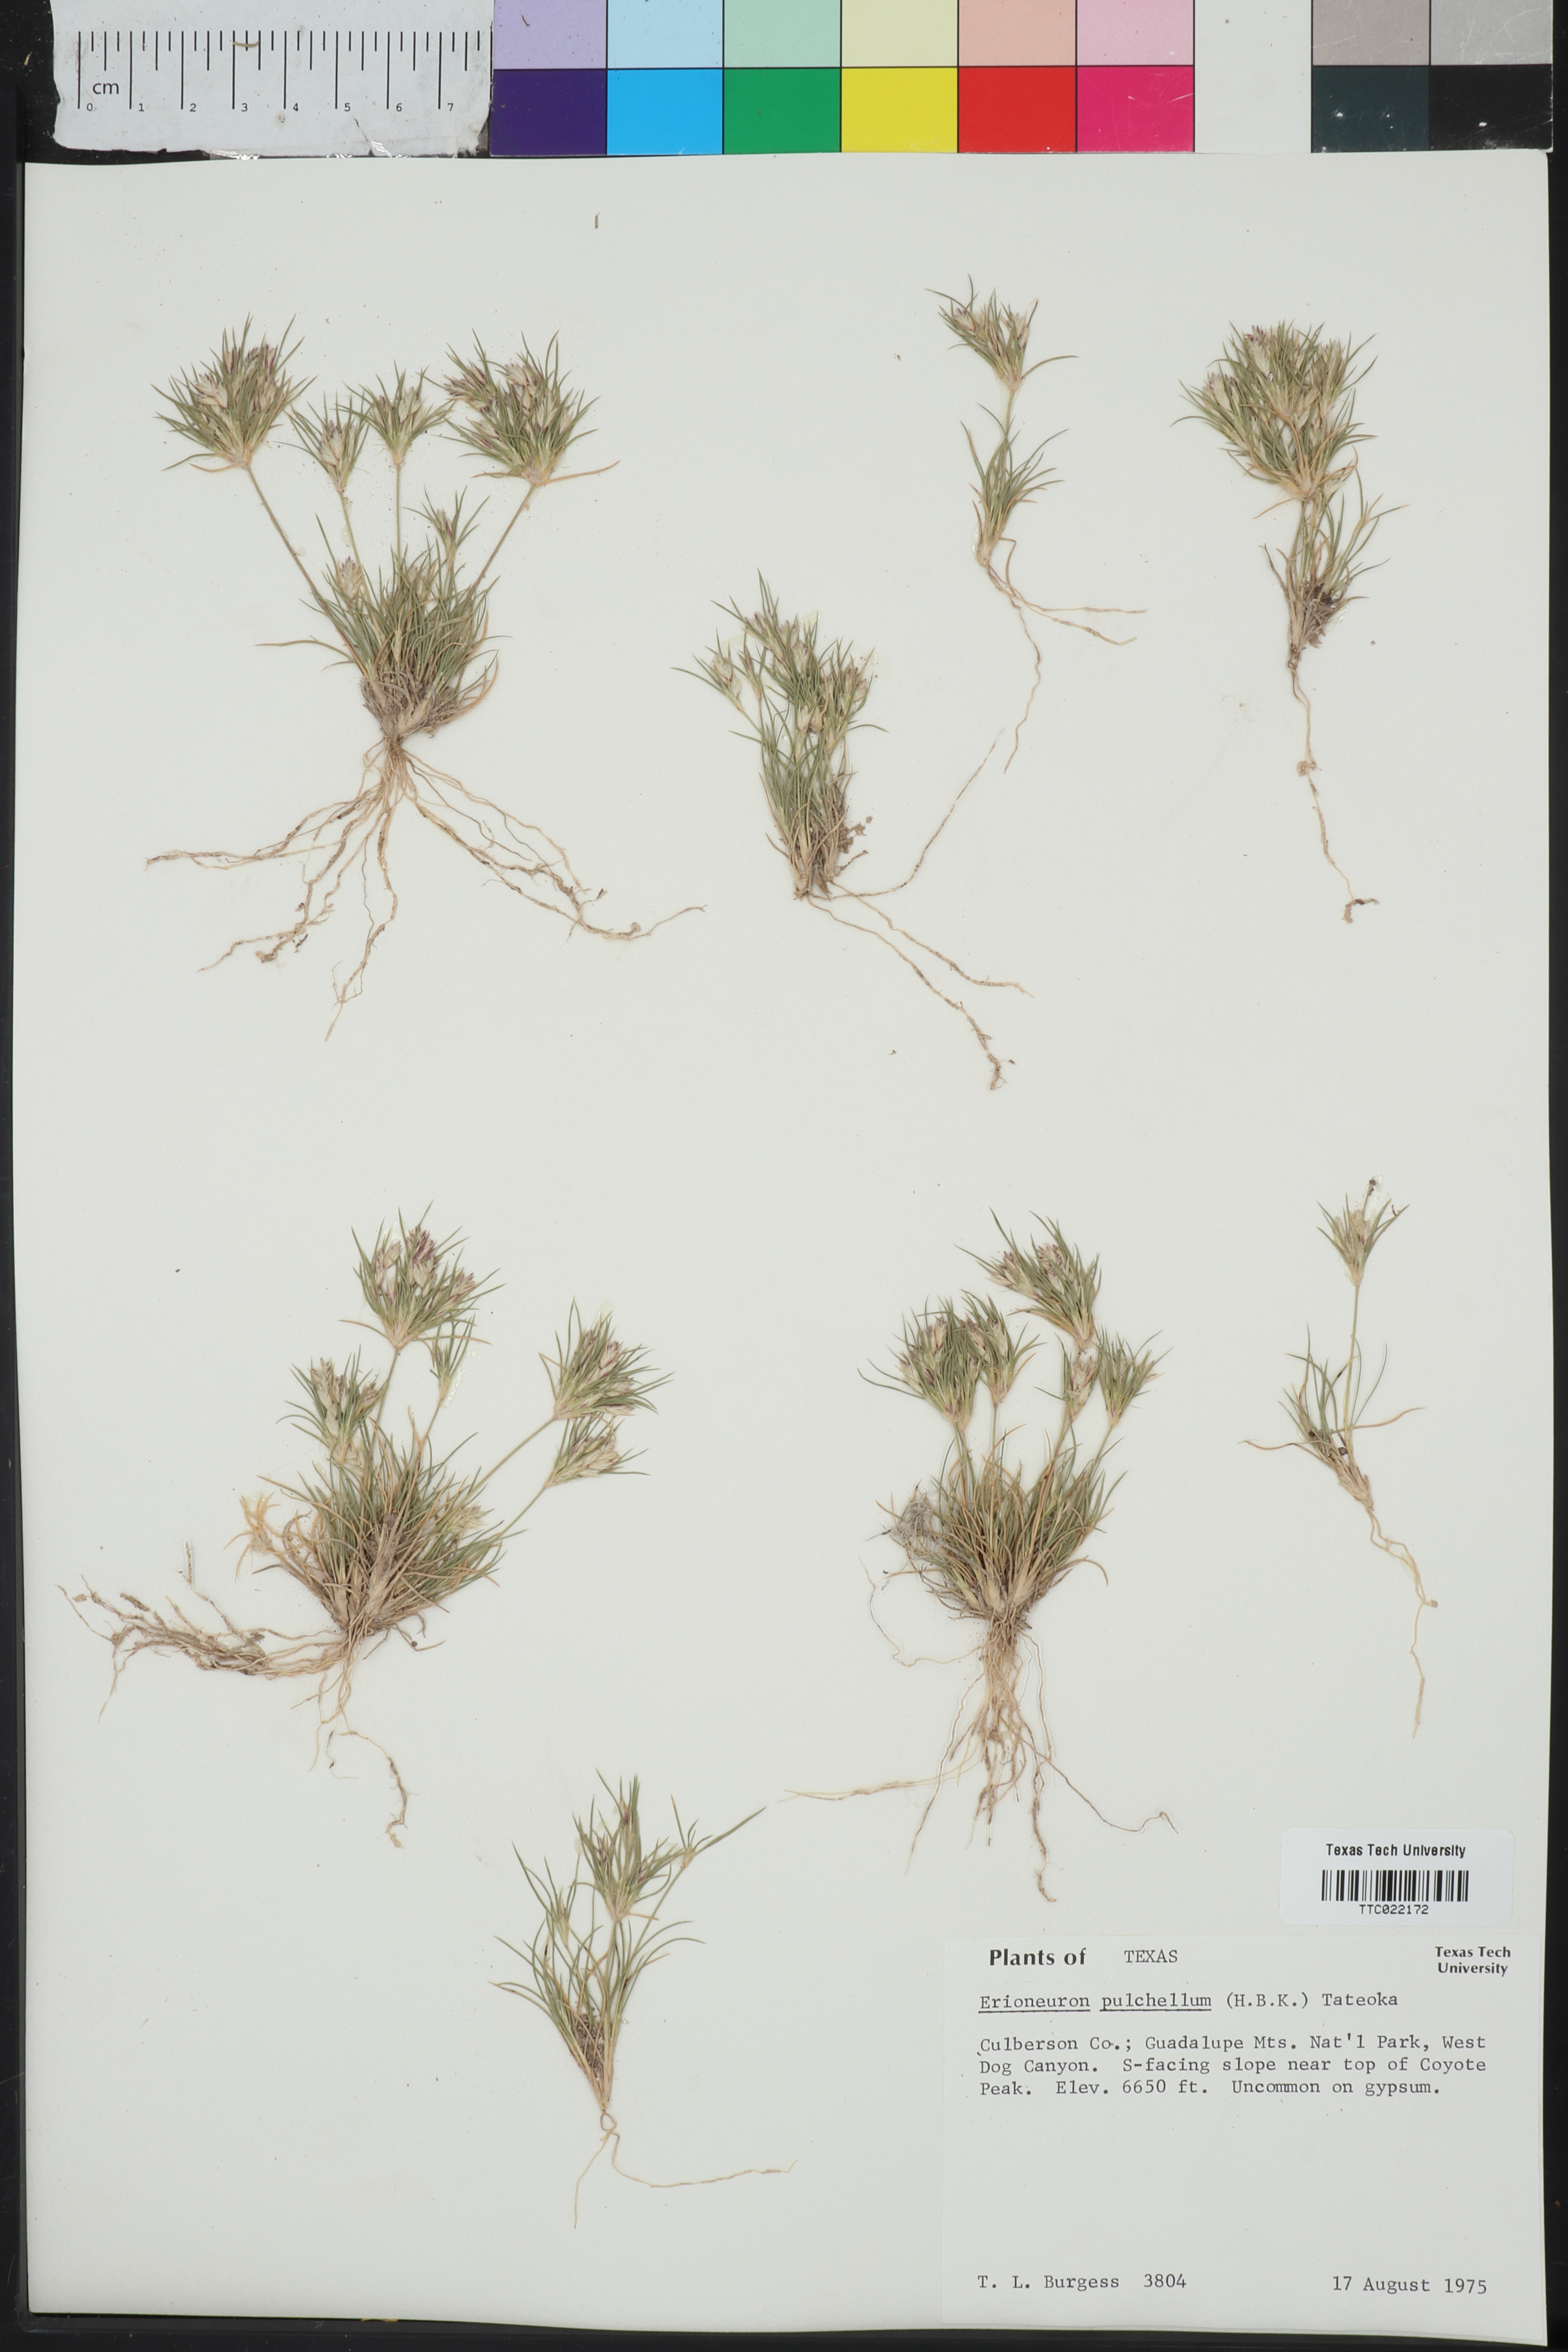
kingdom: Plantae
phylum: Tracheophyta
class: Liliopsida
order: Poales
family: Poaceae
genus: Munroa
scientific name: Munroa pulchella
